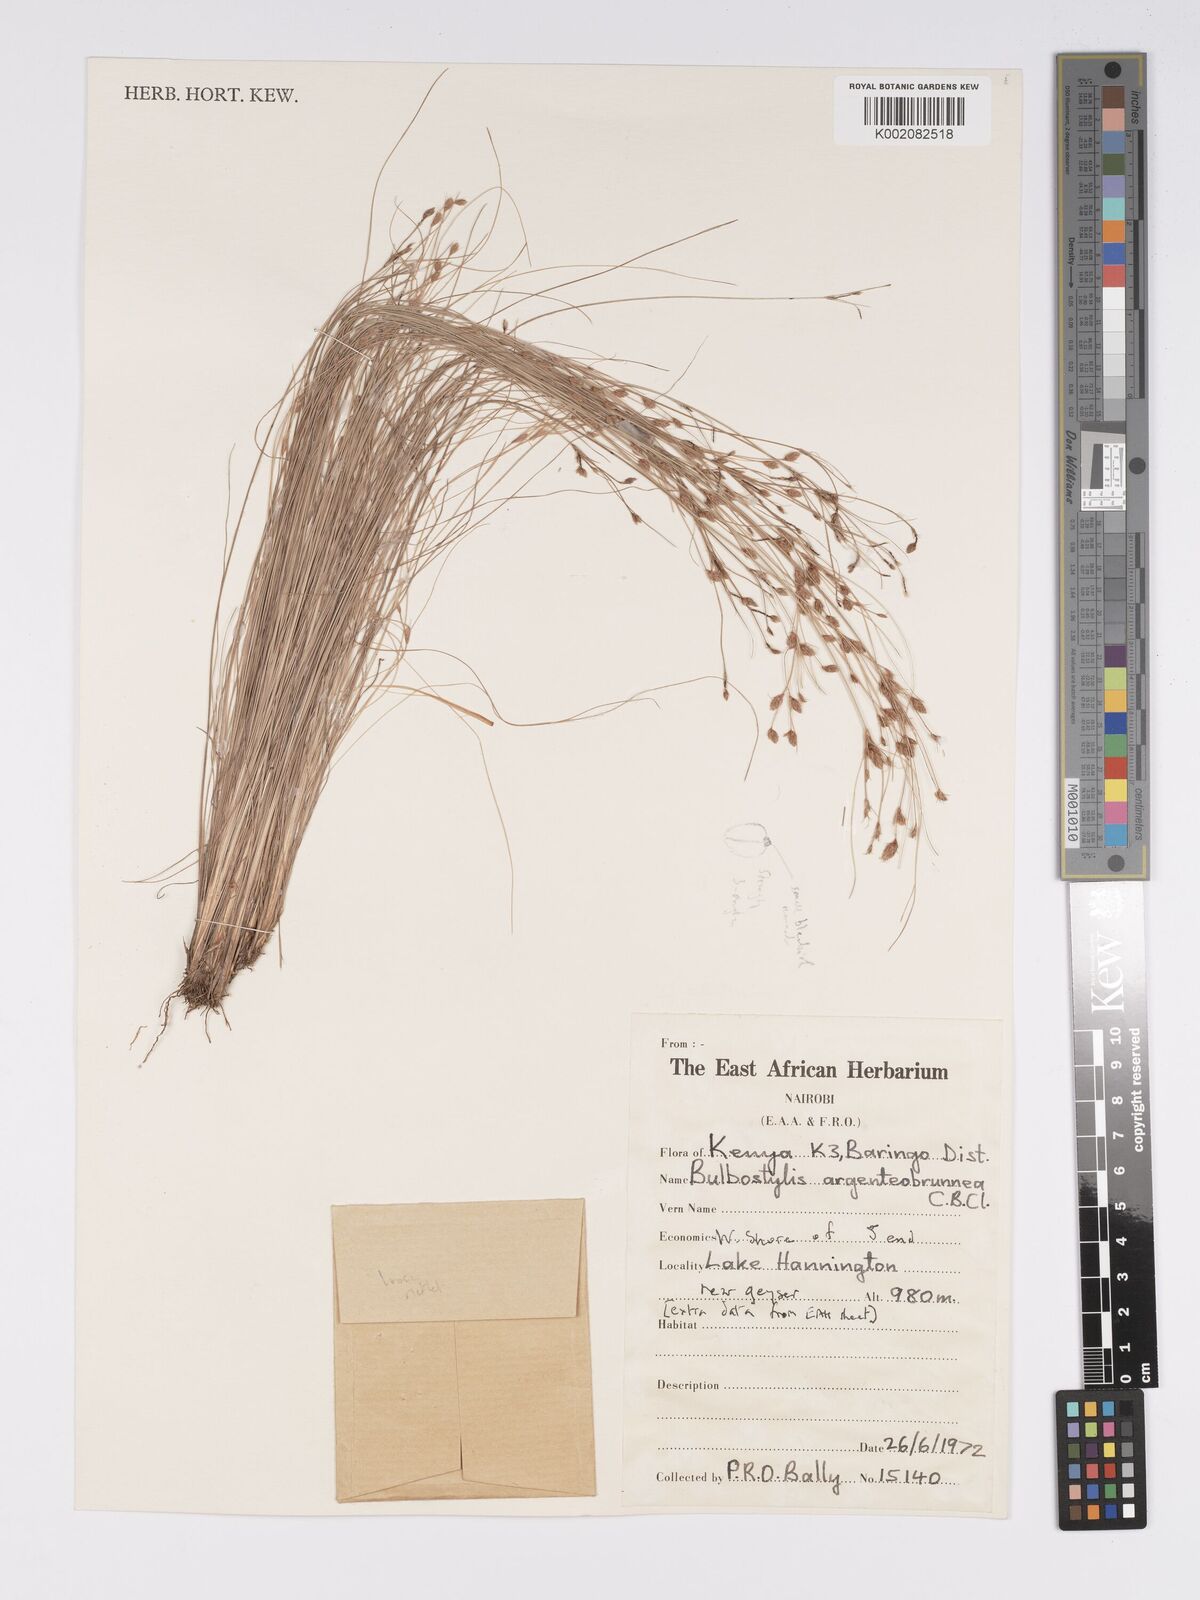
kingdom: Plantae
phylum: Tracheophyta
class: Liliopsida
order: Poales
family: Cyperaceae
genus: Bulbostylis
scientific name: Bulbostylis argenteobrunea
